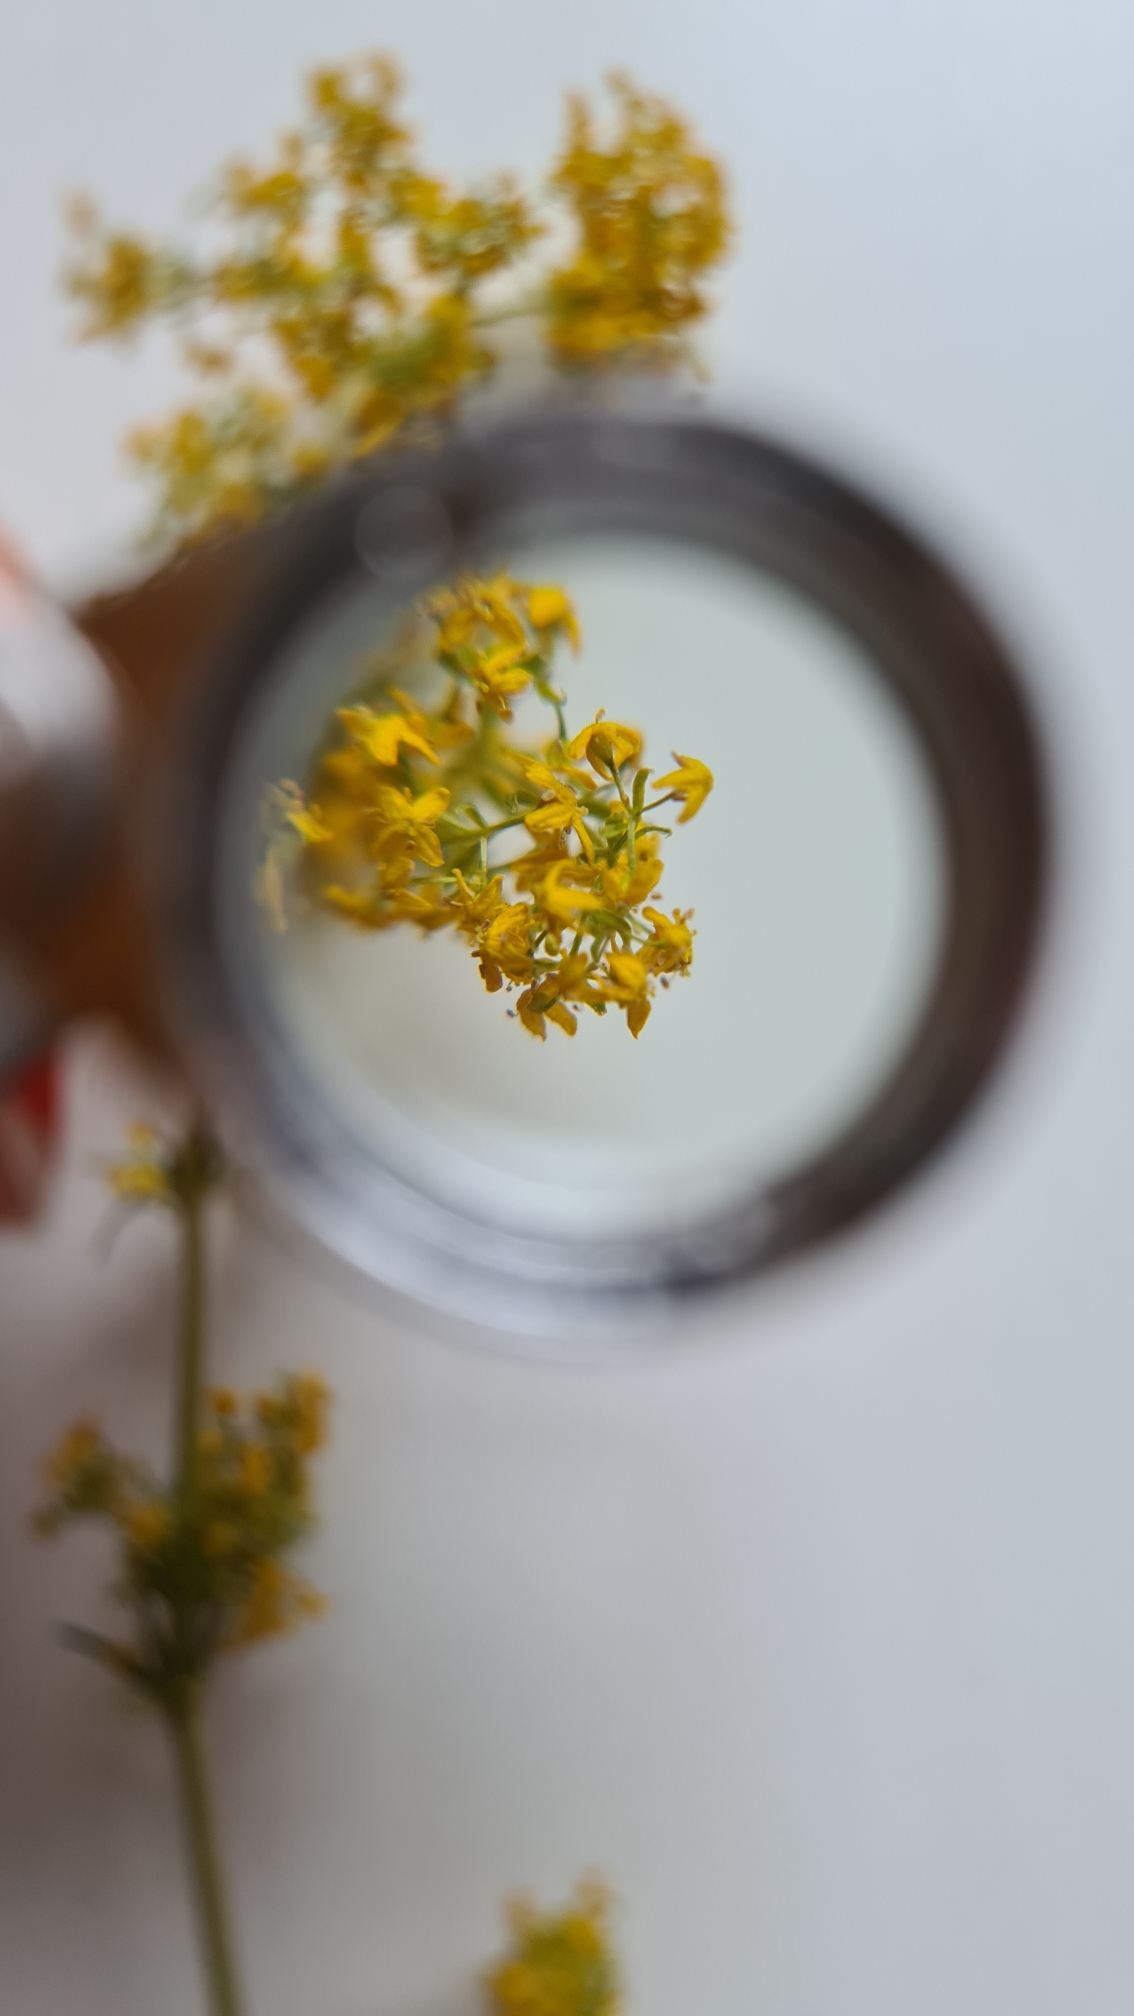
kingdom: Plantae
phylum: Tracheophyta
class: Magnoliopsida
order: Gentianales
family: Rubiaceae
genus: Galium
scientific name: Galium verum
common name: Gul snerre
